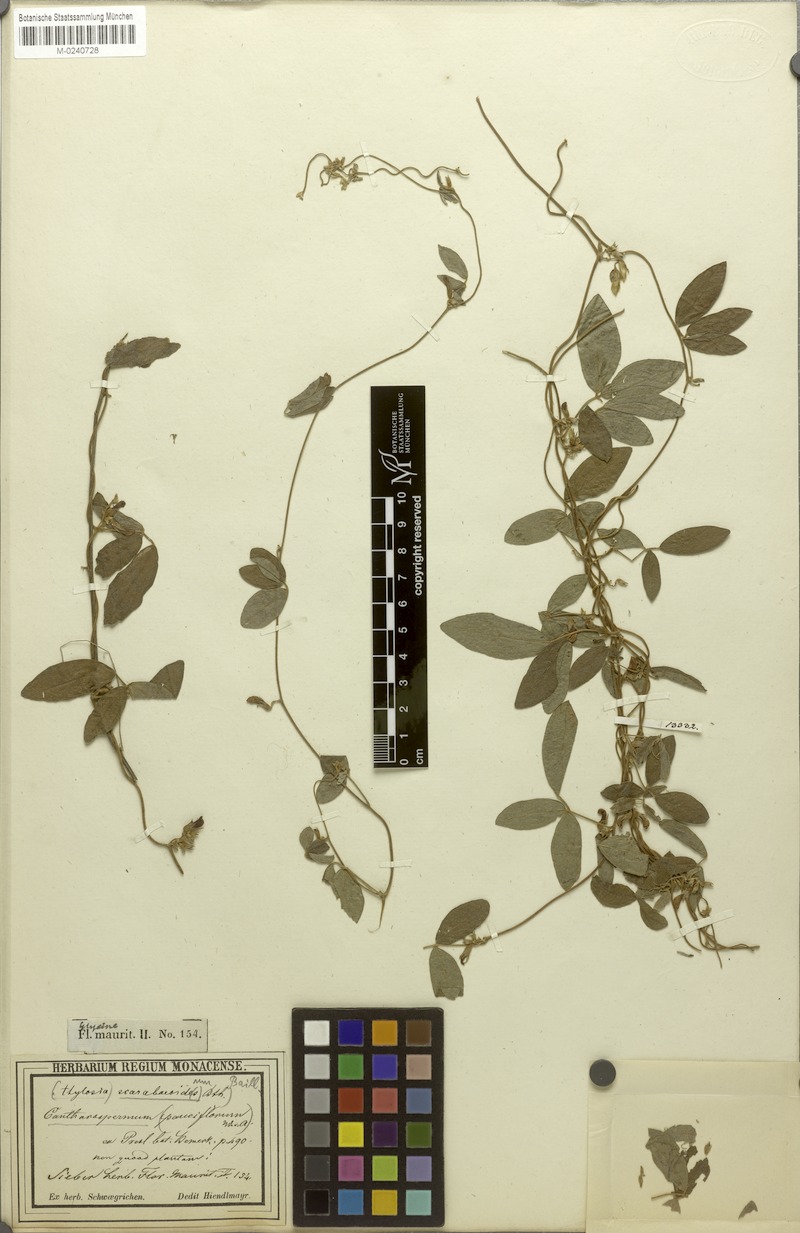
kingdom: Plantae
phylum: Tracheophyta
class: Magnoliopsida
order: Fabales
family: Fabaceae
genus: Cajanus
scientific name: Cajanus scarabaeoides
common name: Showy pigeonpea
